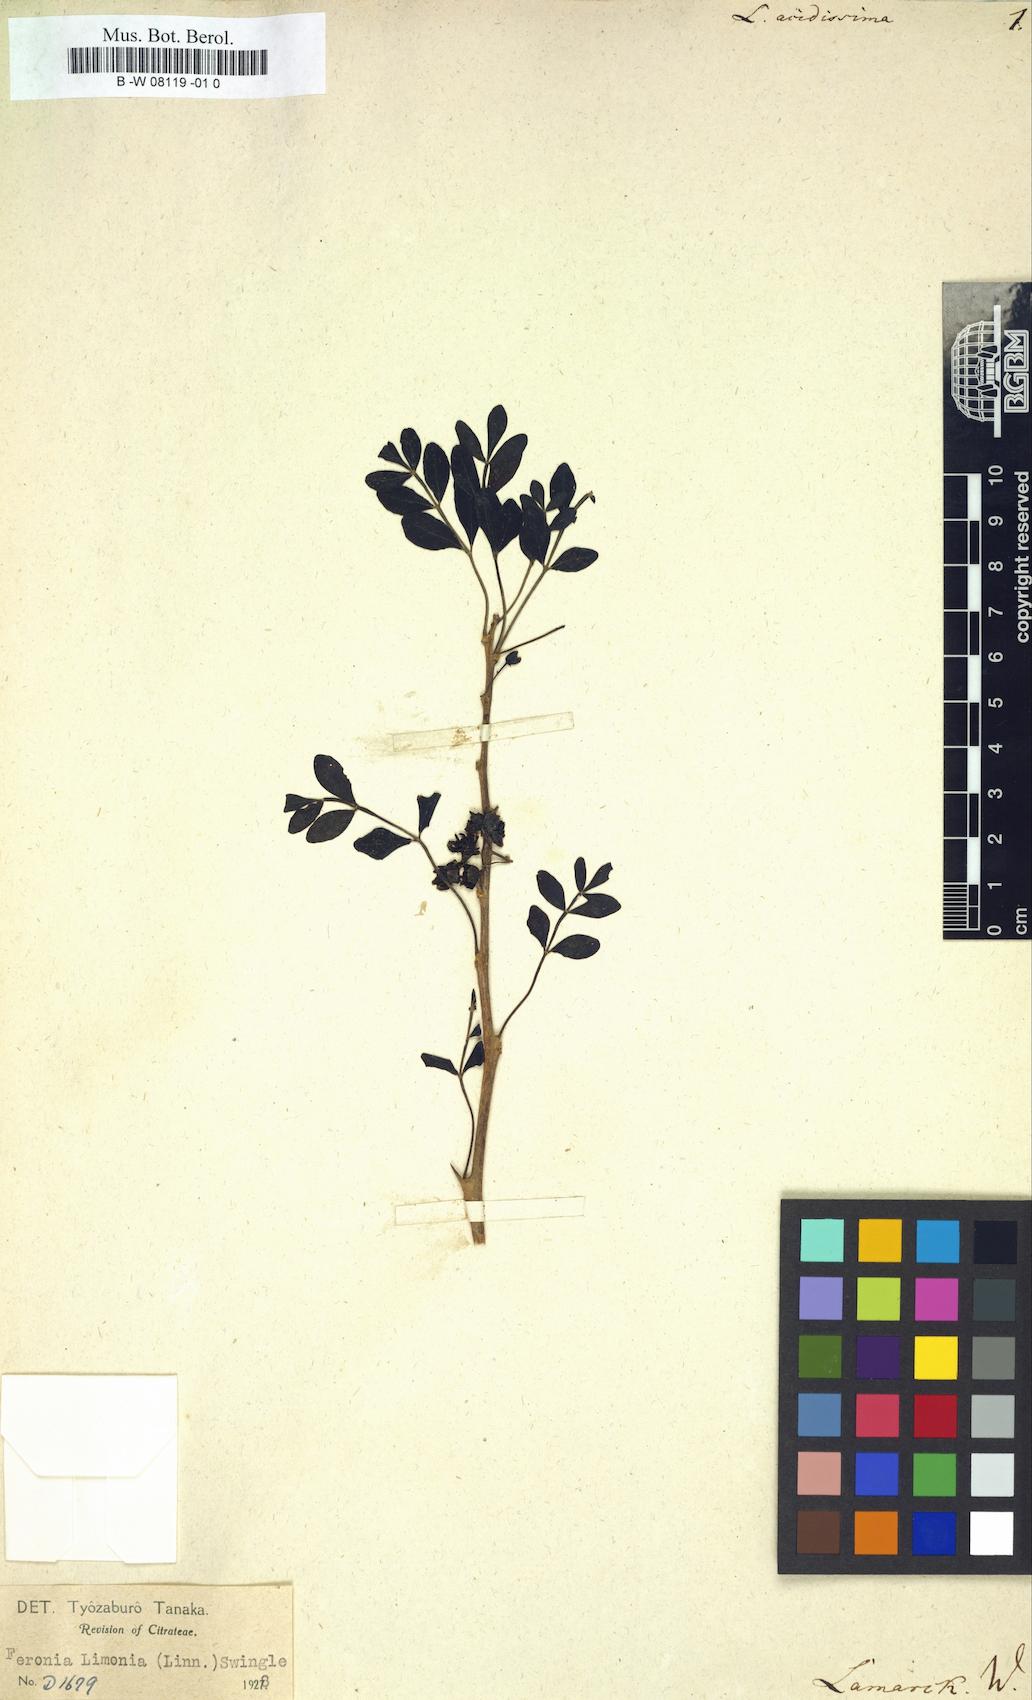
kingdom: Plantae
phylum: Tracheophyta
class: Magnoliopsida
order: Sapindales
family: Rutaceae
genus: Limonia
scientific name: Limonia acidissima
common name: Elephant apple
